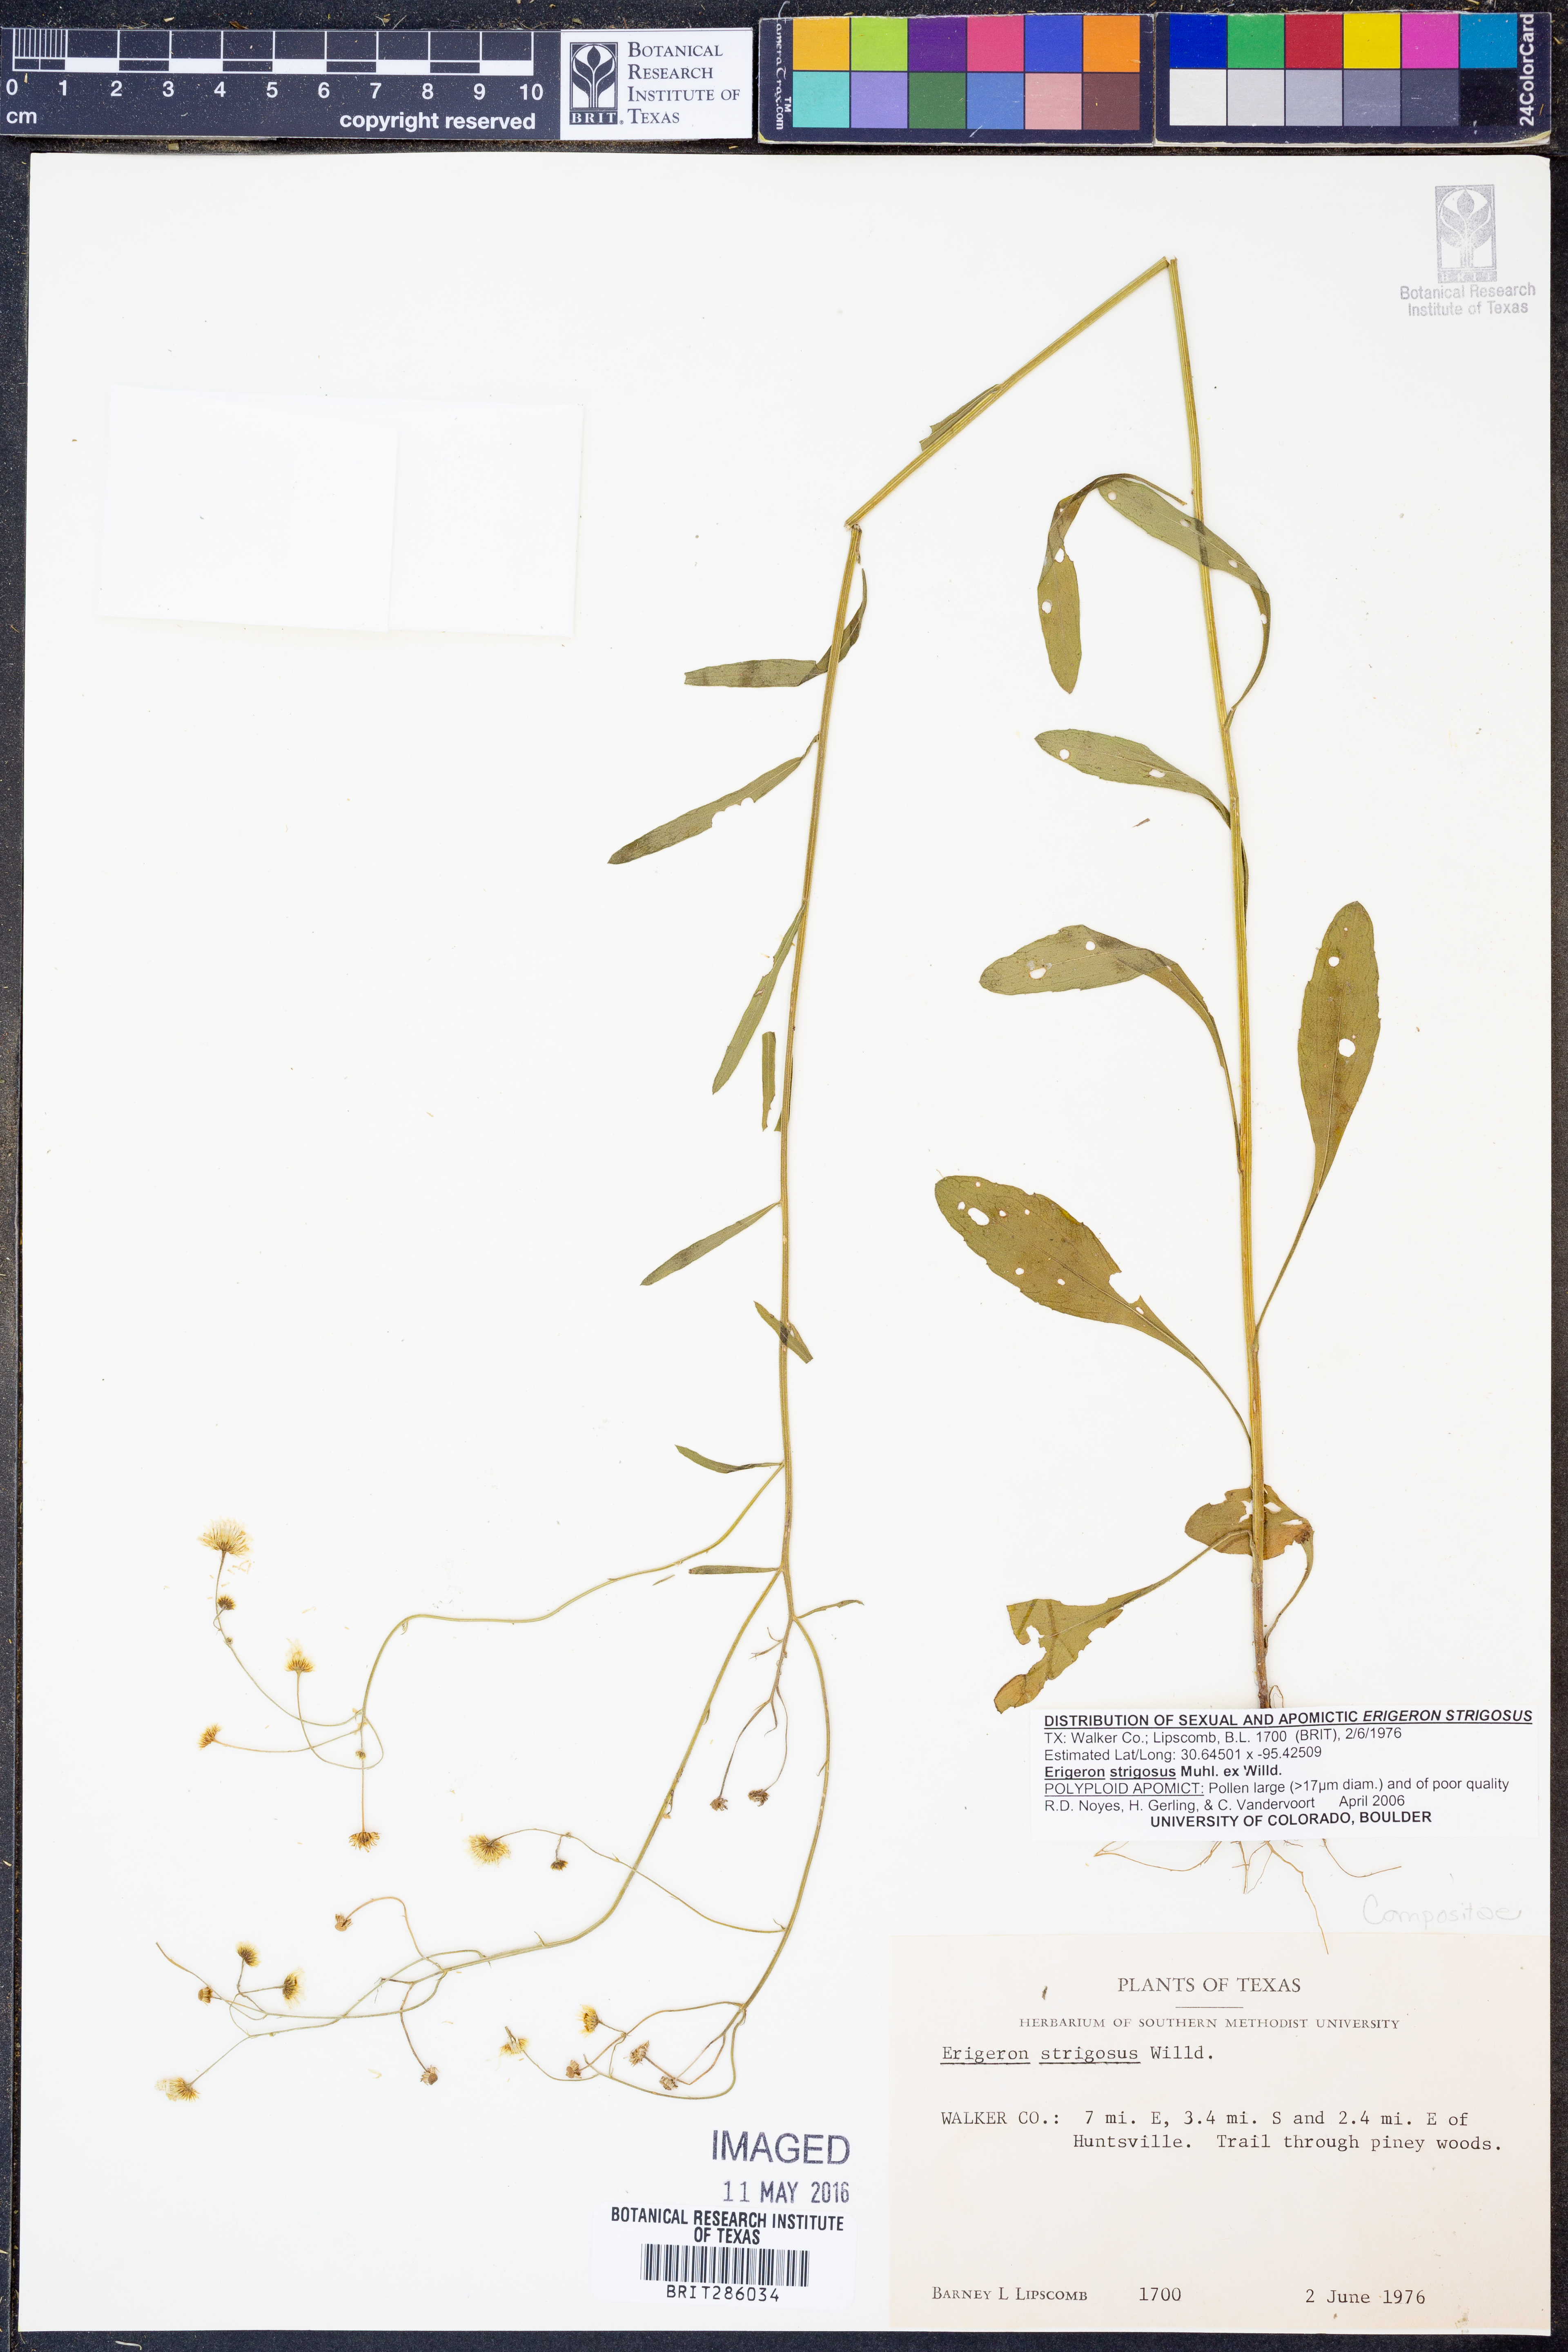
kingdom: Plantae
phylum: Tracheophyta
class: Magnoliopsida
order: Asterales
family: Asteraceae
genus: Erigeron
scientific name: Erigeron strigosus
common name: Common eastern fleabane
